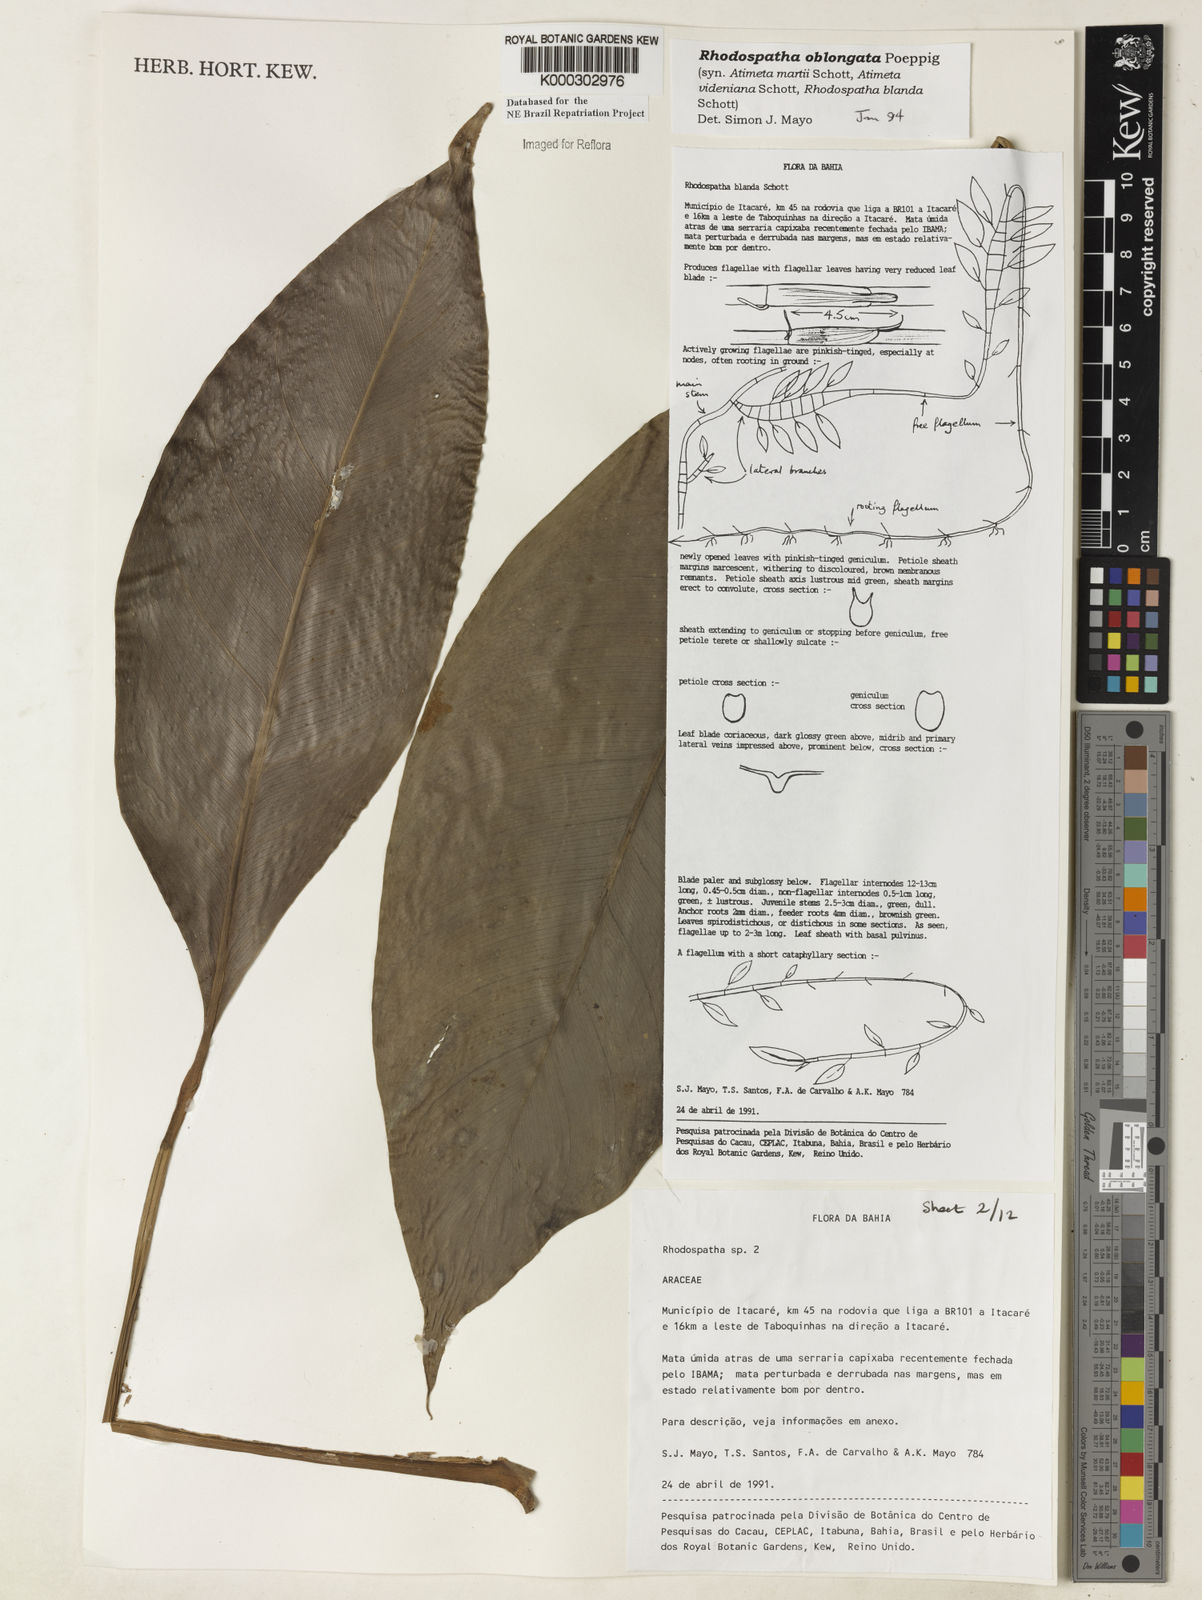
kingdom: Plantae
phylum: Tracheophyta
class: Liliopsida
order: Alismatales
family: Araceae
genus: Rhodospatha
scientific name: Rhodospatha oblongata
